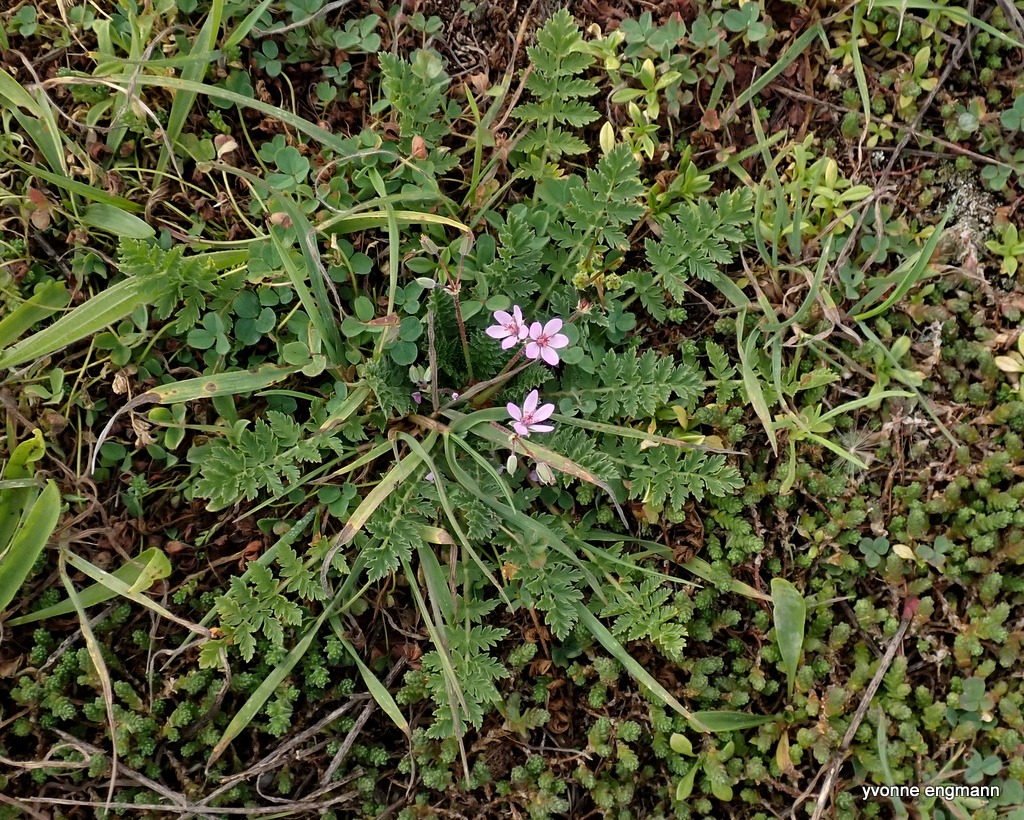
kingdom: Plantae
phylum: Tracheophyta
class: Magnoliopsida
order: Geraniales
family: Geraniaceae
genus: Erodium
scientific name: Erodium cicutarium
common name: Hejrenæb
